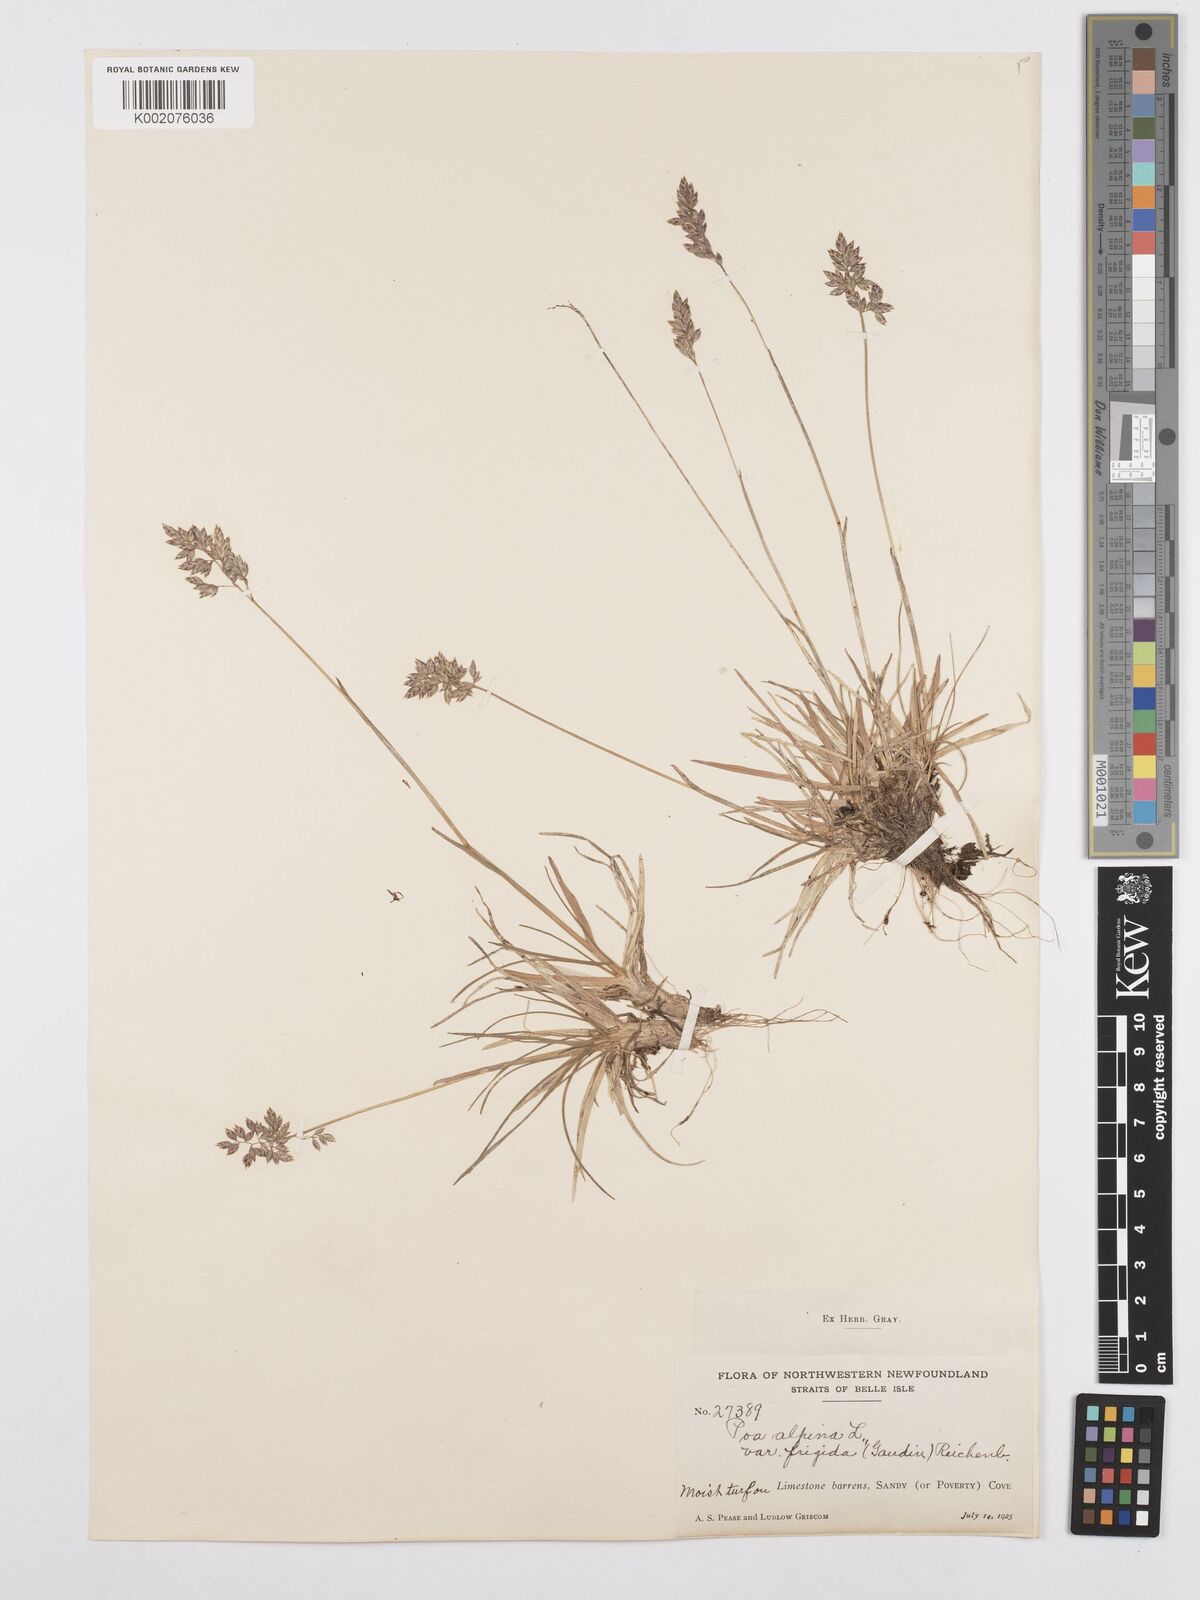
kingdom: Plantae
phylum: Tracheophyta
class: Liliopsida
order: Poales
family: Poaceae
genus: Poa
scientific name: Poa alpina
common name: Alpine bluegrass
